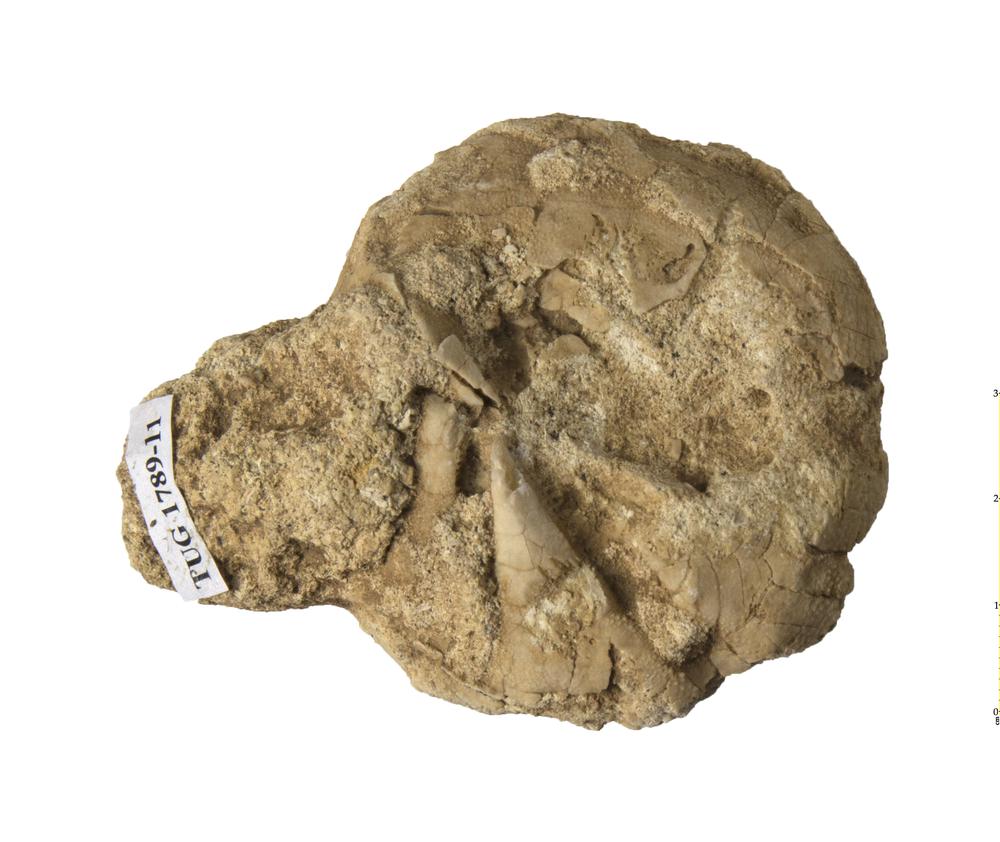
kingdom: Animalia
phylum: Echinodermata
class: Echinoidea
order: Clypeasteroida
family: Clypeasteridae
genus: Clypeaster
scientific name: Clypeaster
